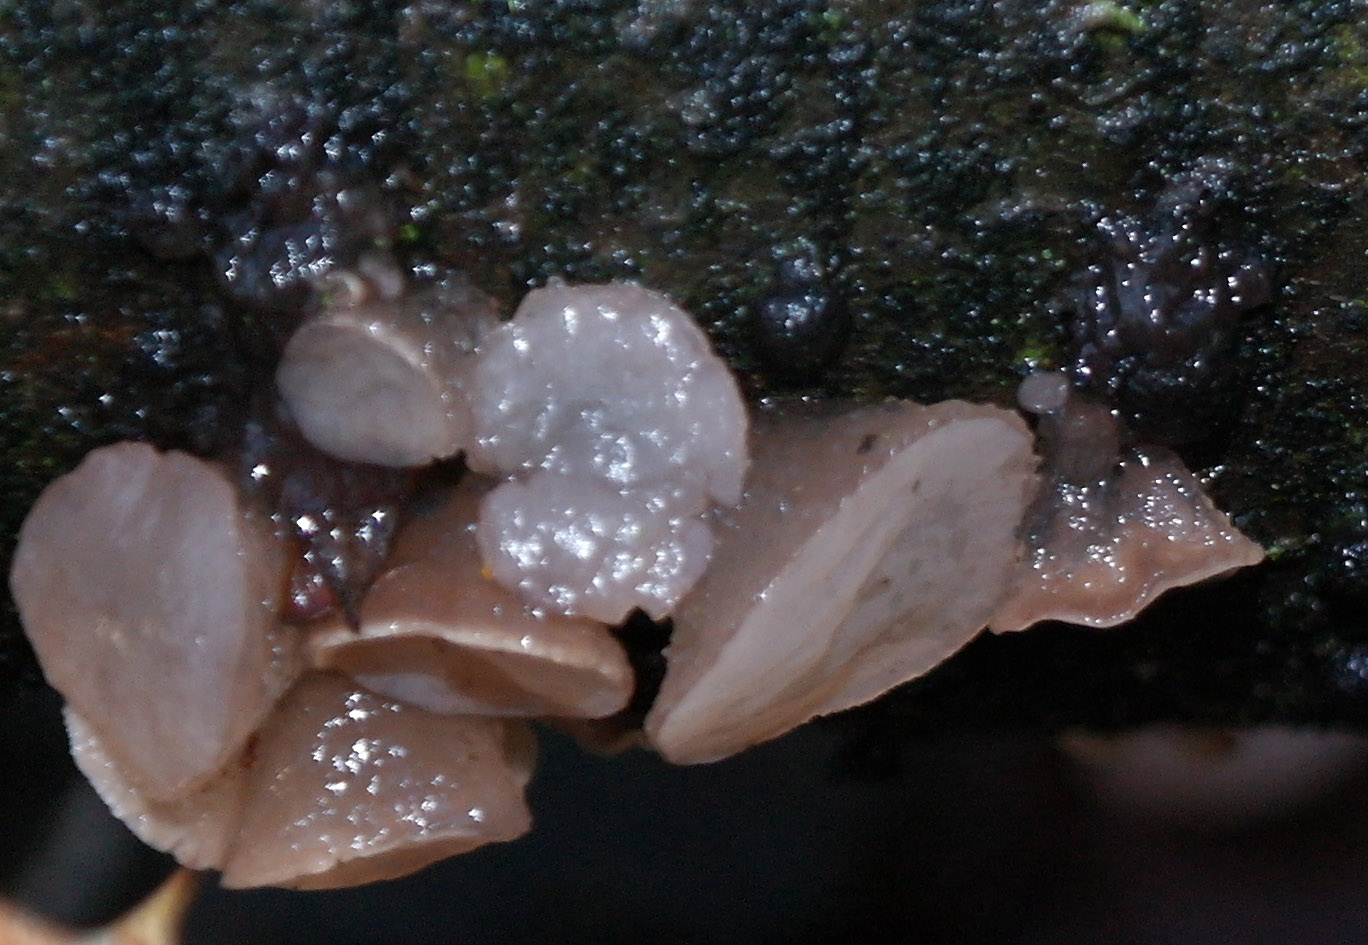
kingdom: Fungi
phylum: Ascomycota
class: Leotiomycetes
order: Helotiales
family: Gelatinodiscaceae
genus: Neobulgaria
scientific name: Neobulgaria pura
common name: bleg bævreskive
